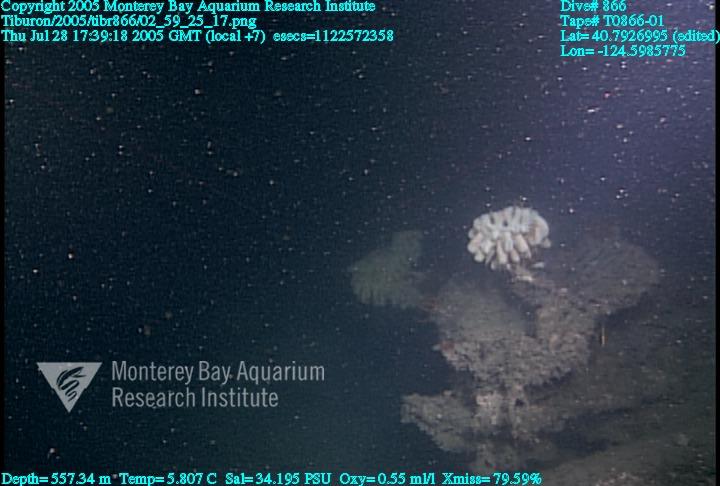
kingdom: Animalia
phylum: Porifera
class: Hexactinellida
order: Sceptrulophora
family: Aphrocallistidae
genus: Heterochone
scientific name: Heterochone calyx
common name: Fingered goblet glass sponge
